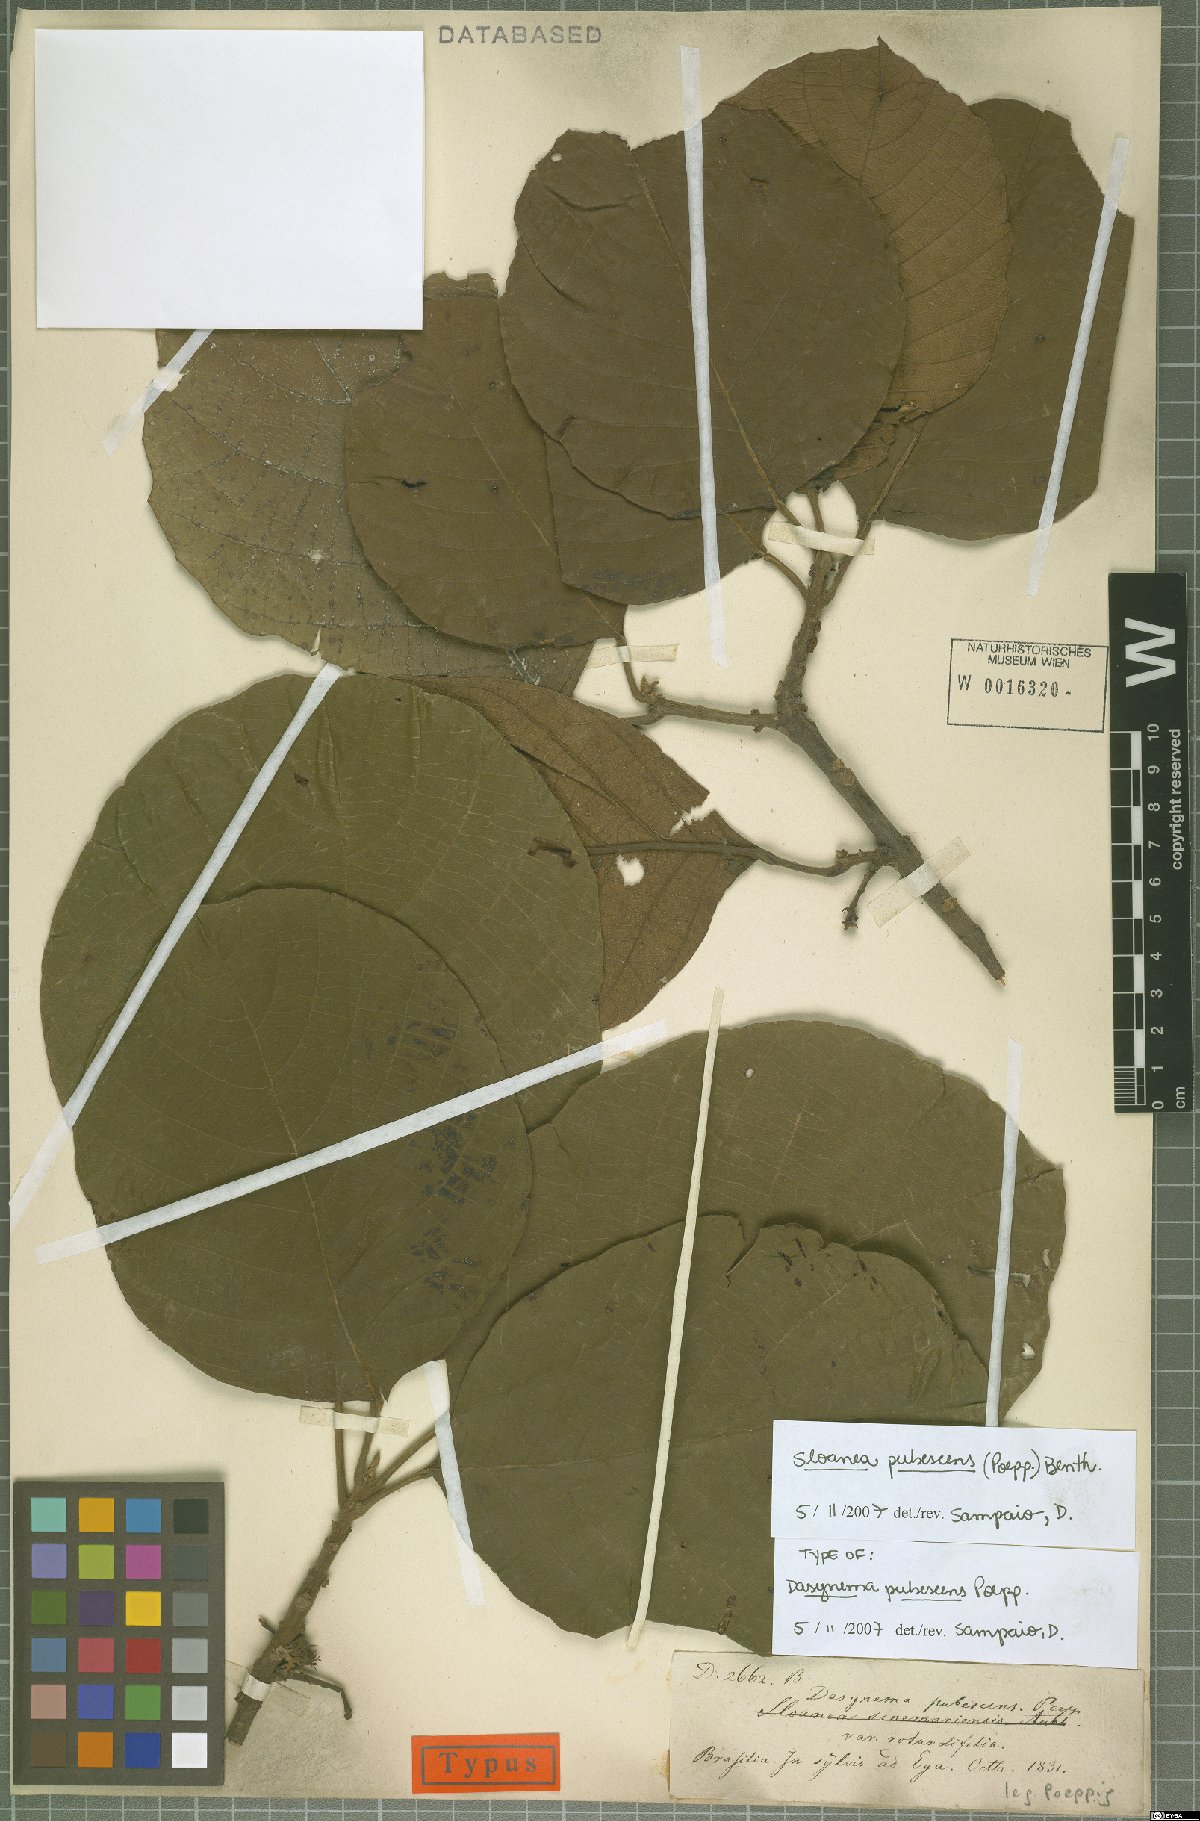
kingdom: Plantae
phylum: Tracheophyta
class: Magnoliopsida
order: Oxalidales
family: Elaeocarpaceae
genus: Sloanea
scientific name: Sloanea pubescens
